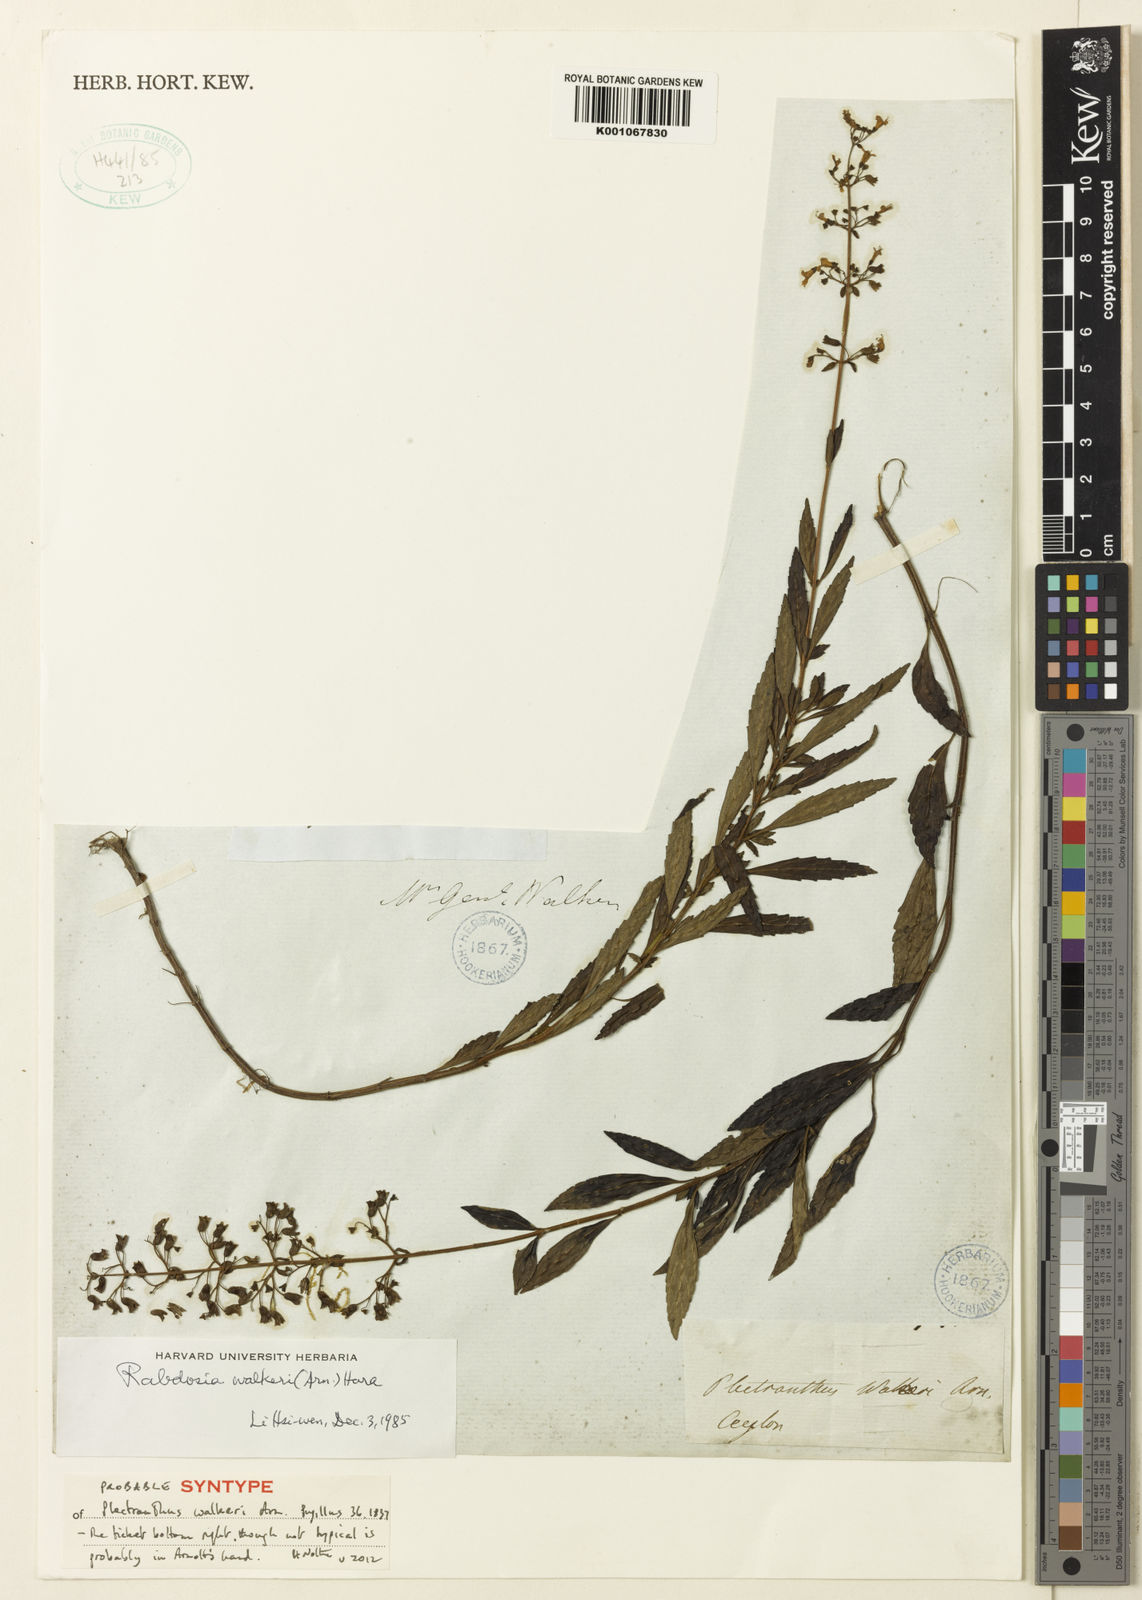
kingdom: Plantae
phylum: Tracheophyta
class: Magnoliopsida
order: Lamiales
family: Lamiaceae
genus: Isodon
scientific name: Isodon walkeri
